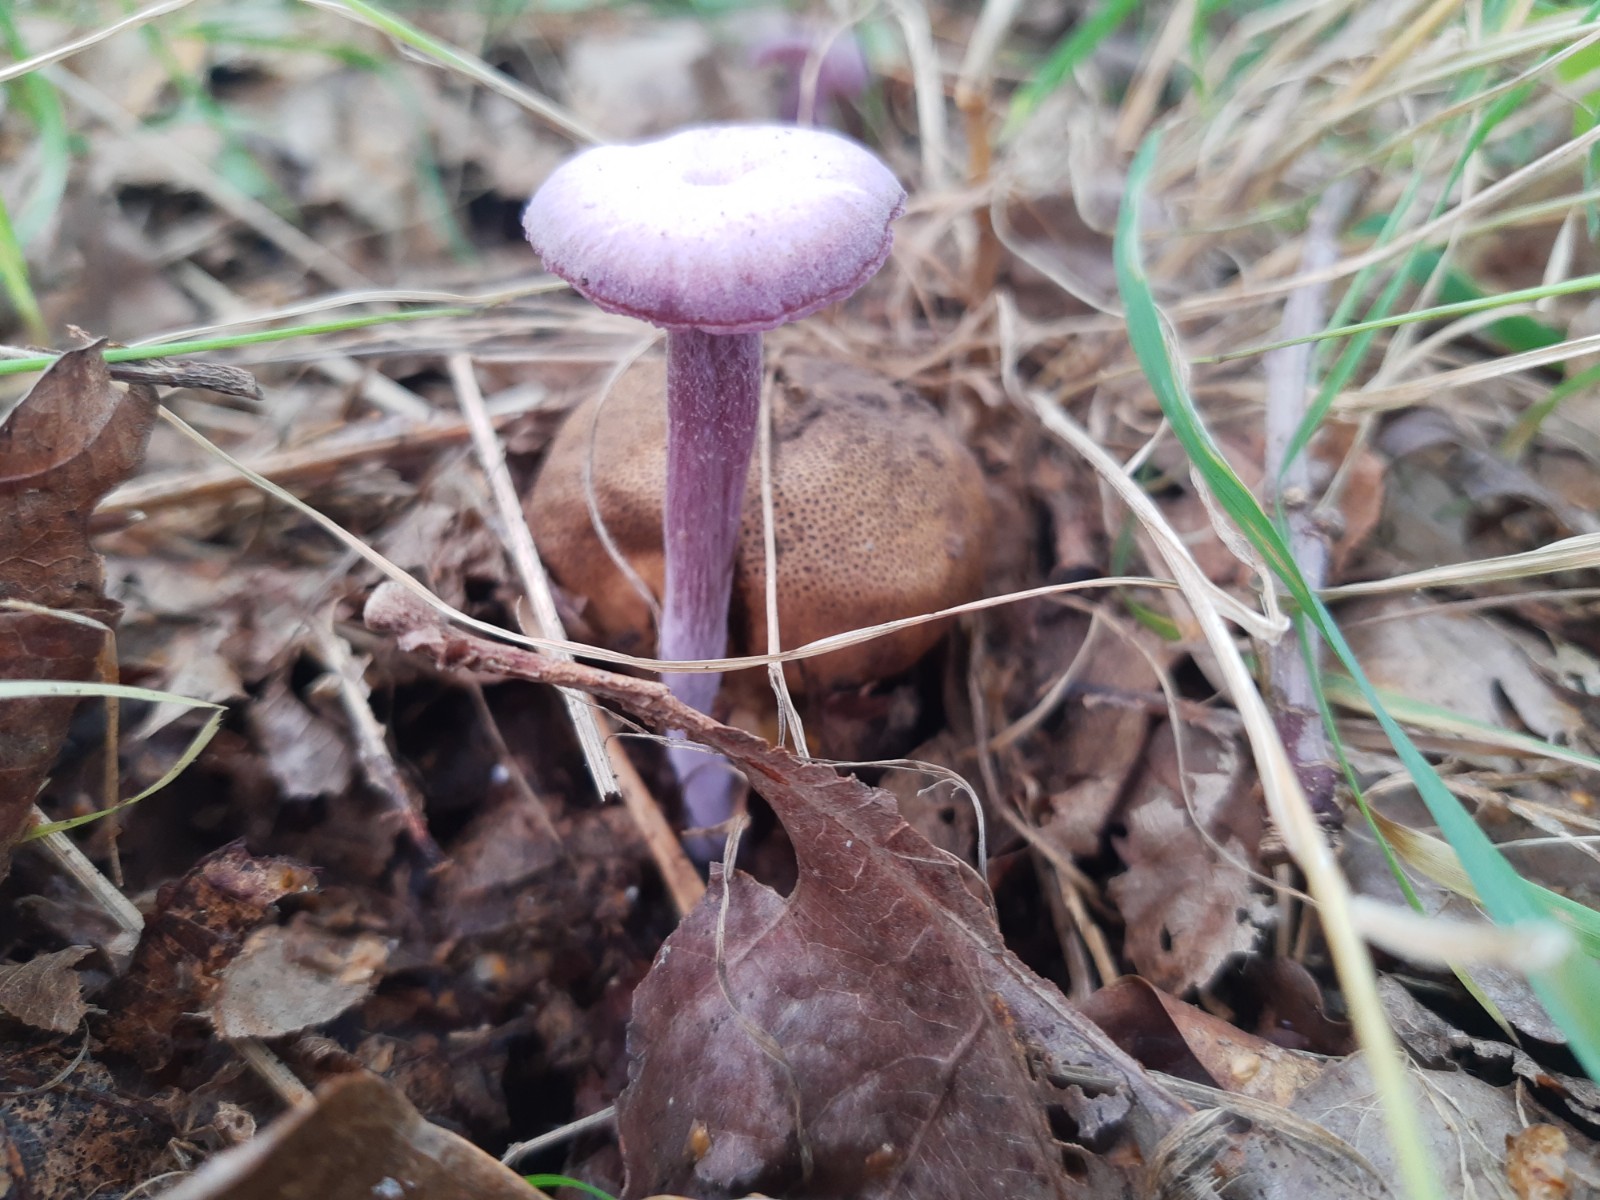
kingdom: Fungi
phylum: Basidiomycota
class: Agaricomycetes
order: Agaricales
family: Hydnangiaceae
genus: Laccaria
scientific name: Laccaria amethystina
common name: violet ametysthat
